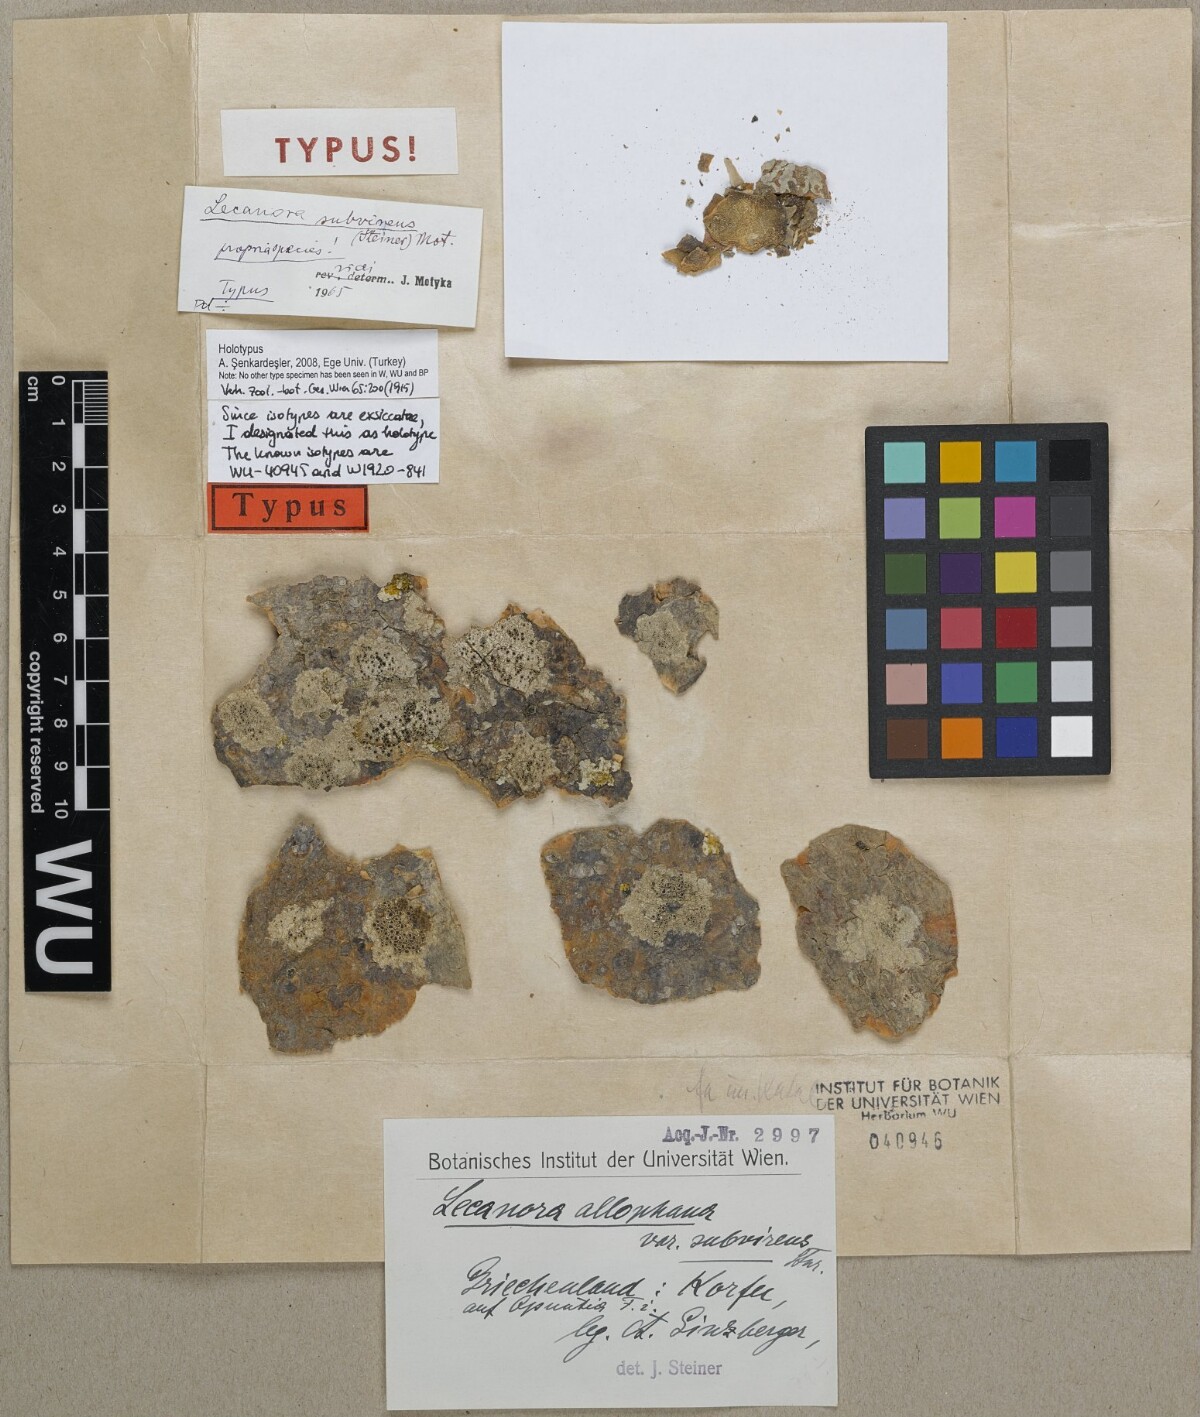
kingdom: Fungi
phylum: Ascomycota
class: Lecanoromycetes
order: Lecanorales
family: Lecanoraceae
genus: Lecanora
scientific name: Lecanora albella
